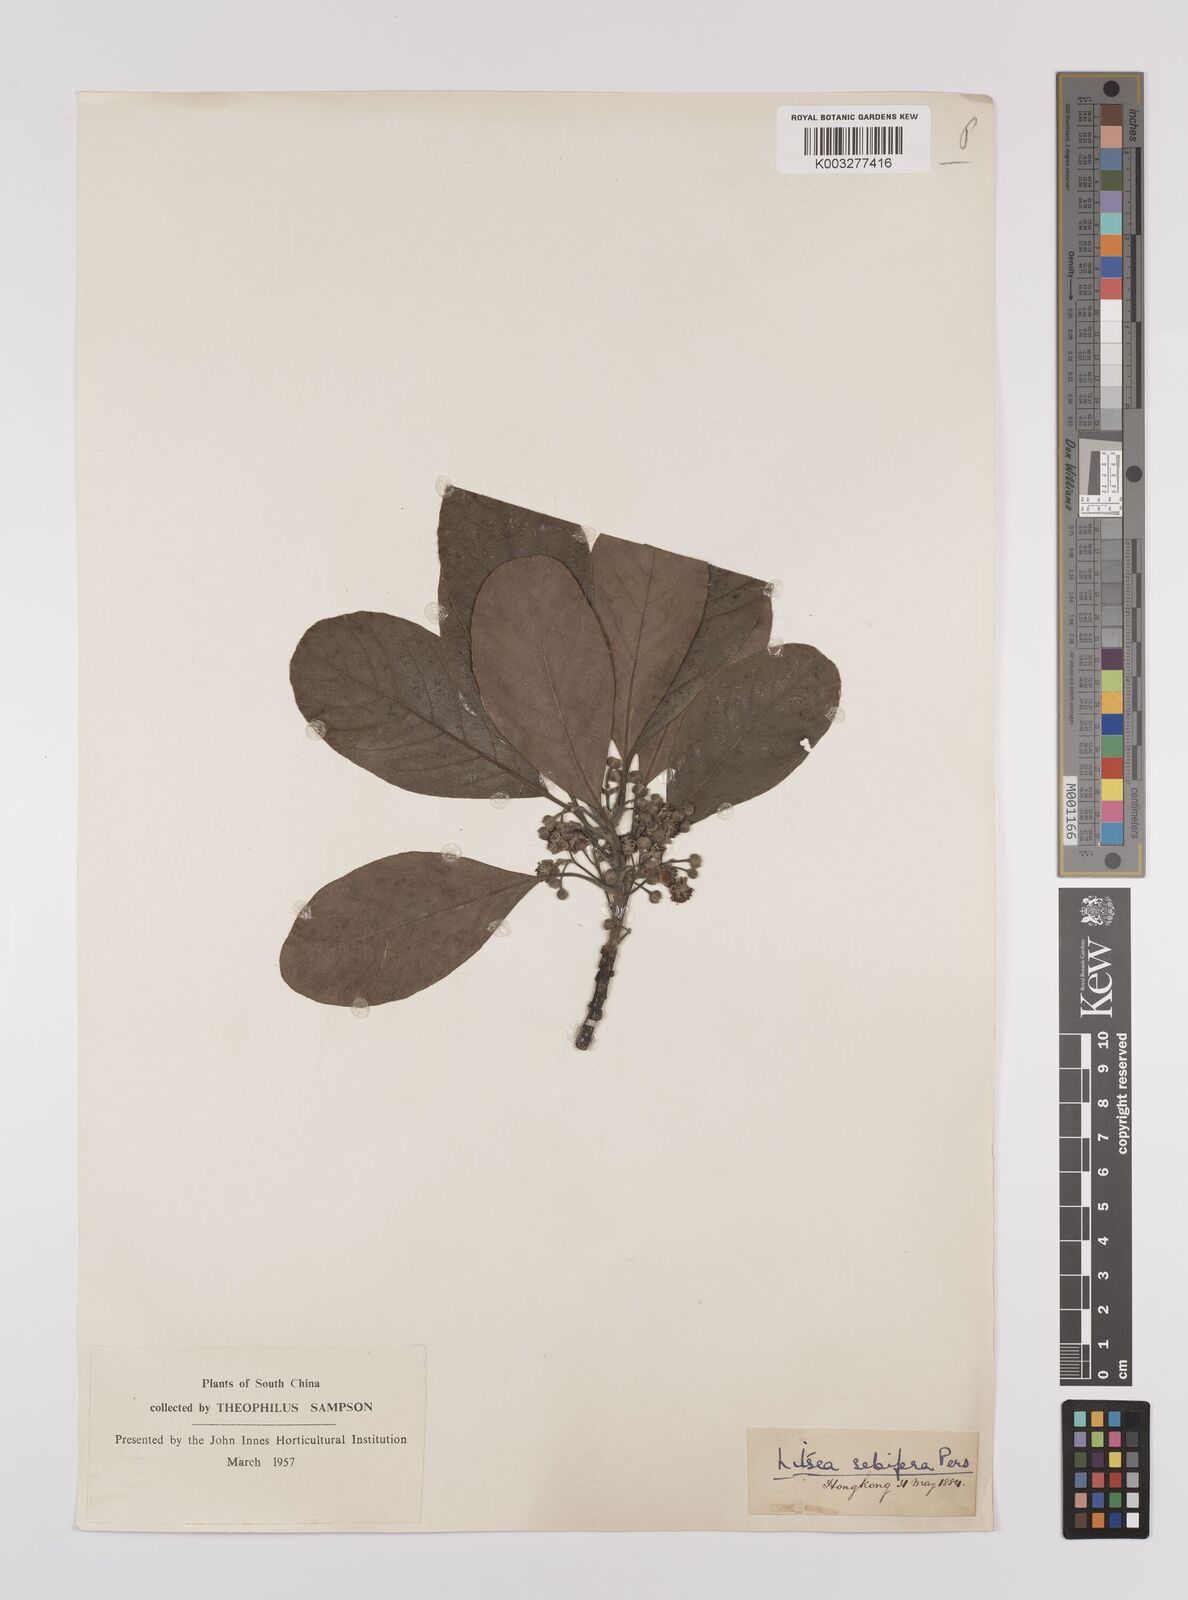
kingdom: Plantae
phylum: Tracheophyta
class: Magnoliopsida
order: Laurales
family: Lauraceae
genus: Litsea
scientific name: Litsea glutinosa
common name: Indian-laurel
